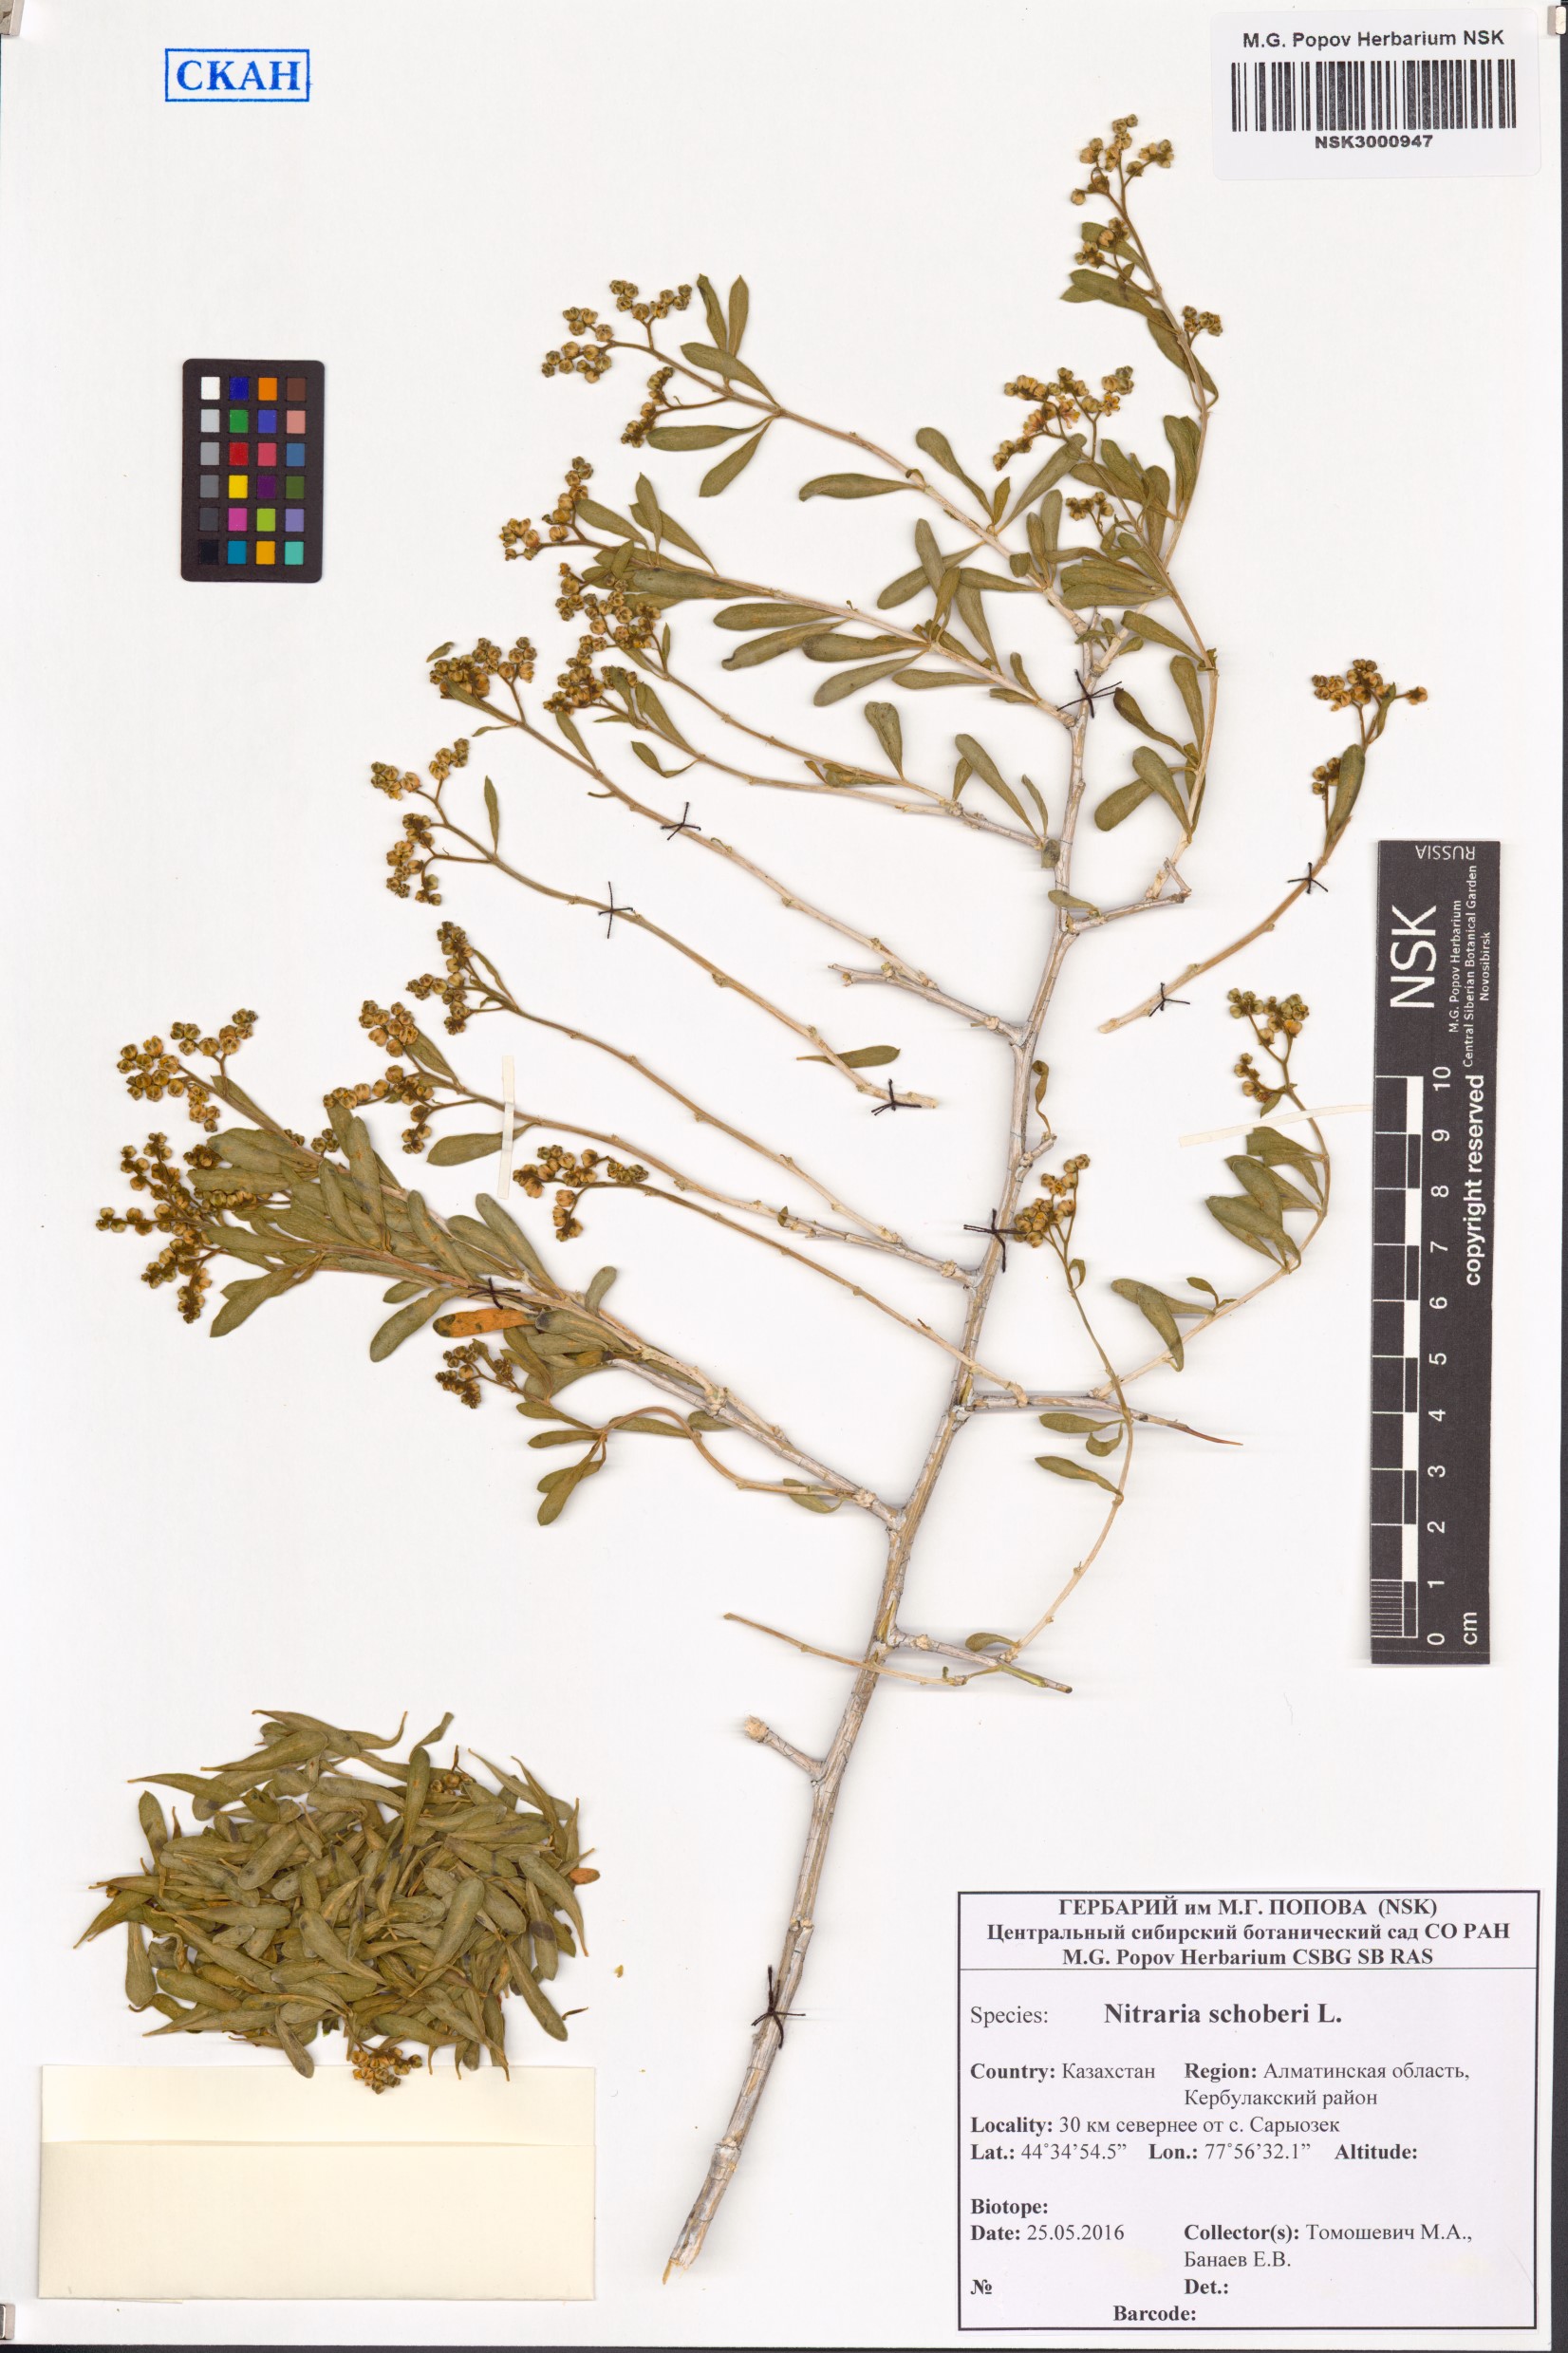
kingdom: Plantae
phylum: Tracheophyta
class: Magnoliopsida
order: Sapindales
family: Nitrariaceae
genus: Nitraria
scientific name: Nitraria schoberi
